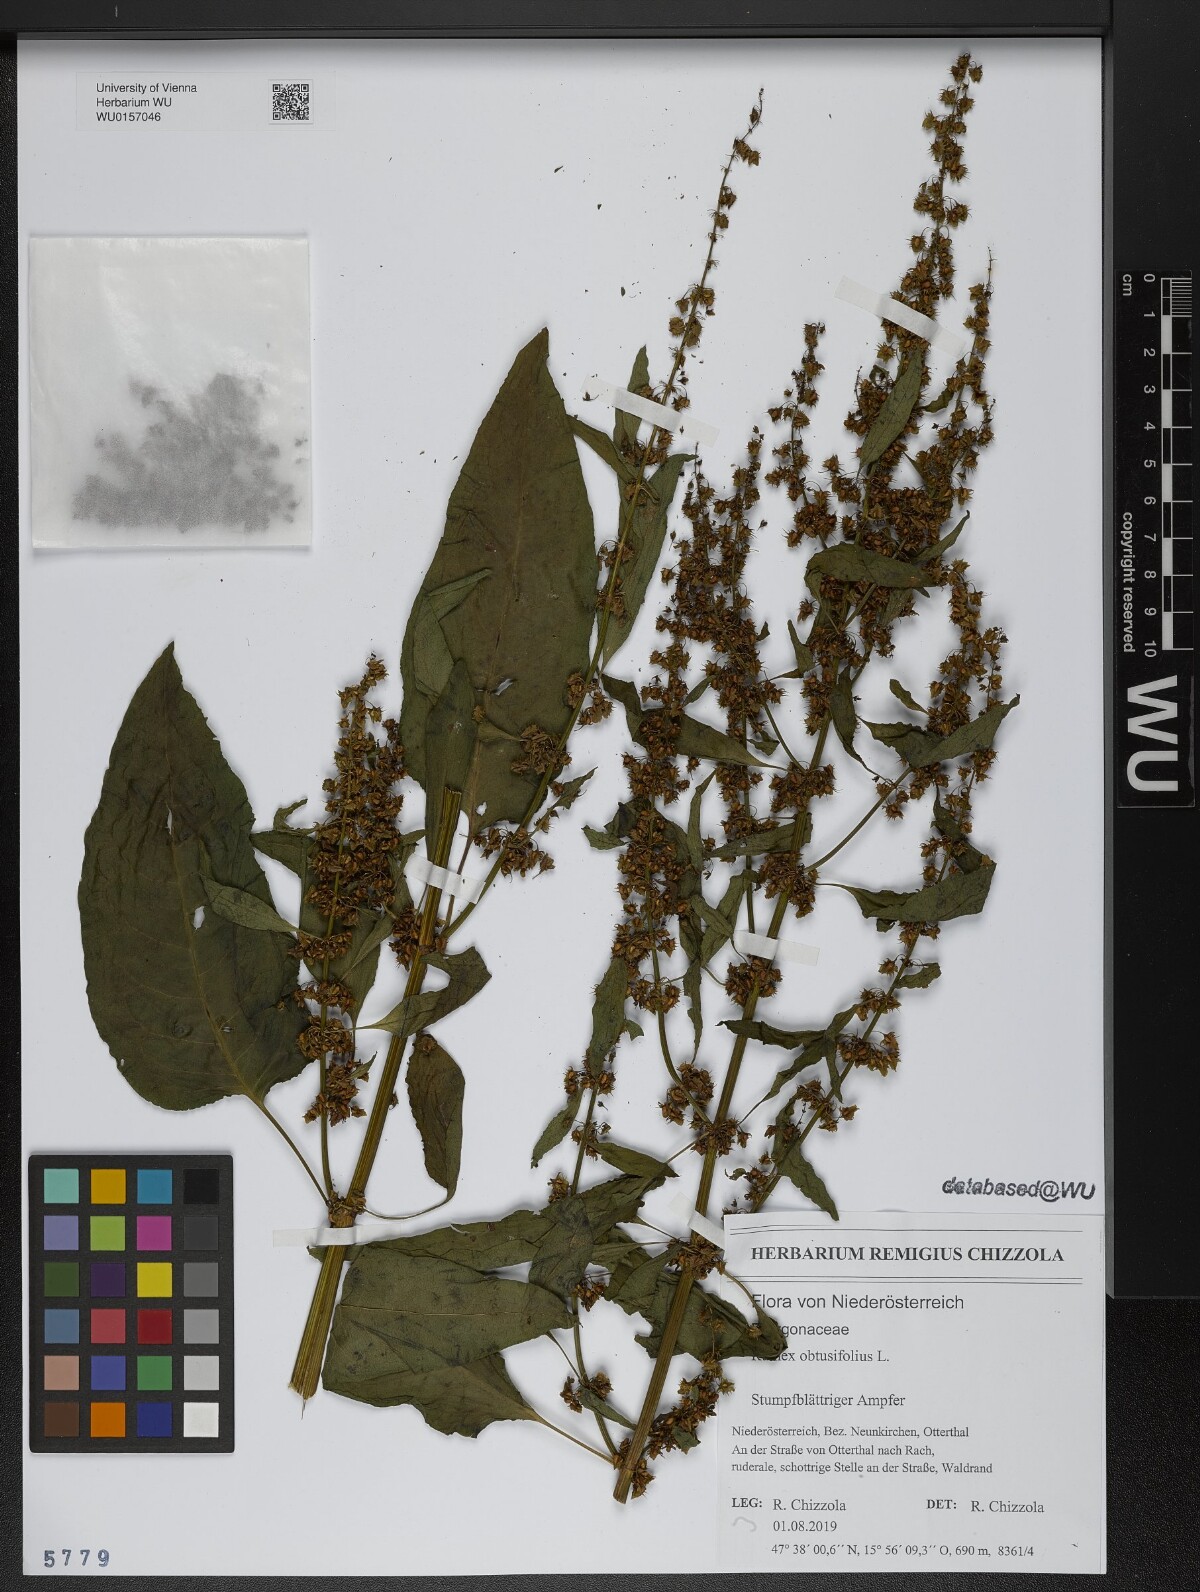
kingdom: Plantae
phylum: Tracheophyta
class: Magnoliopsida
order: Caryophyllales
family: Polygonaceae
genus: Rumex
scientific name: Rumex obtusifolius
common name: Bitter dock
